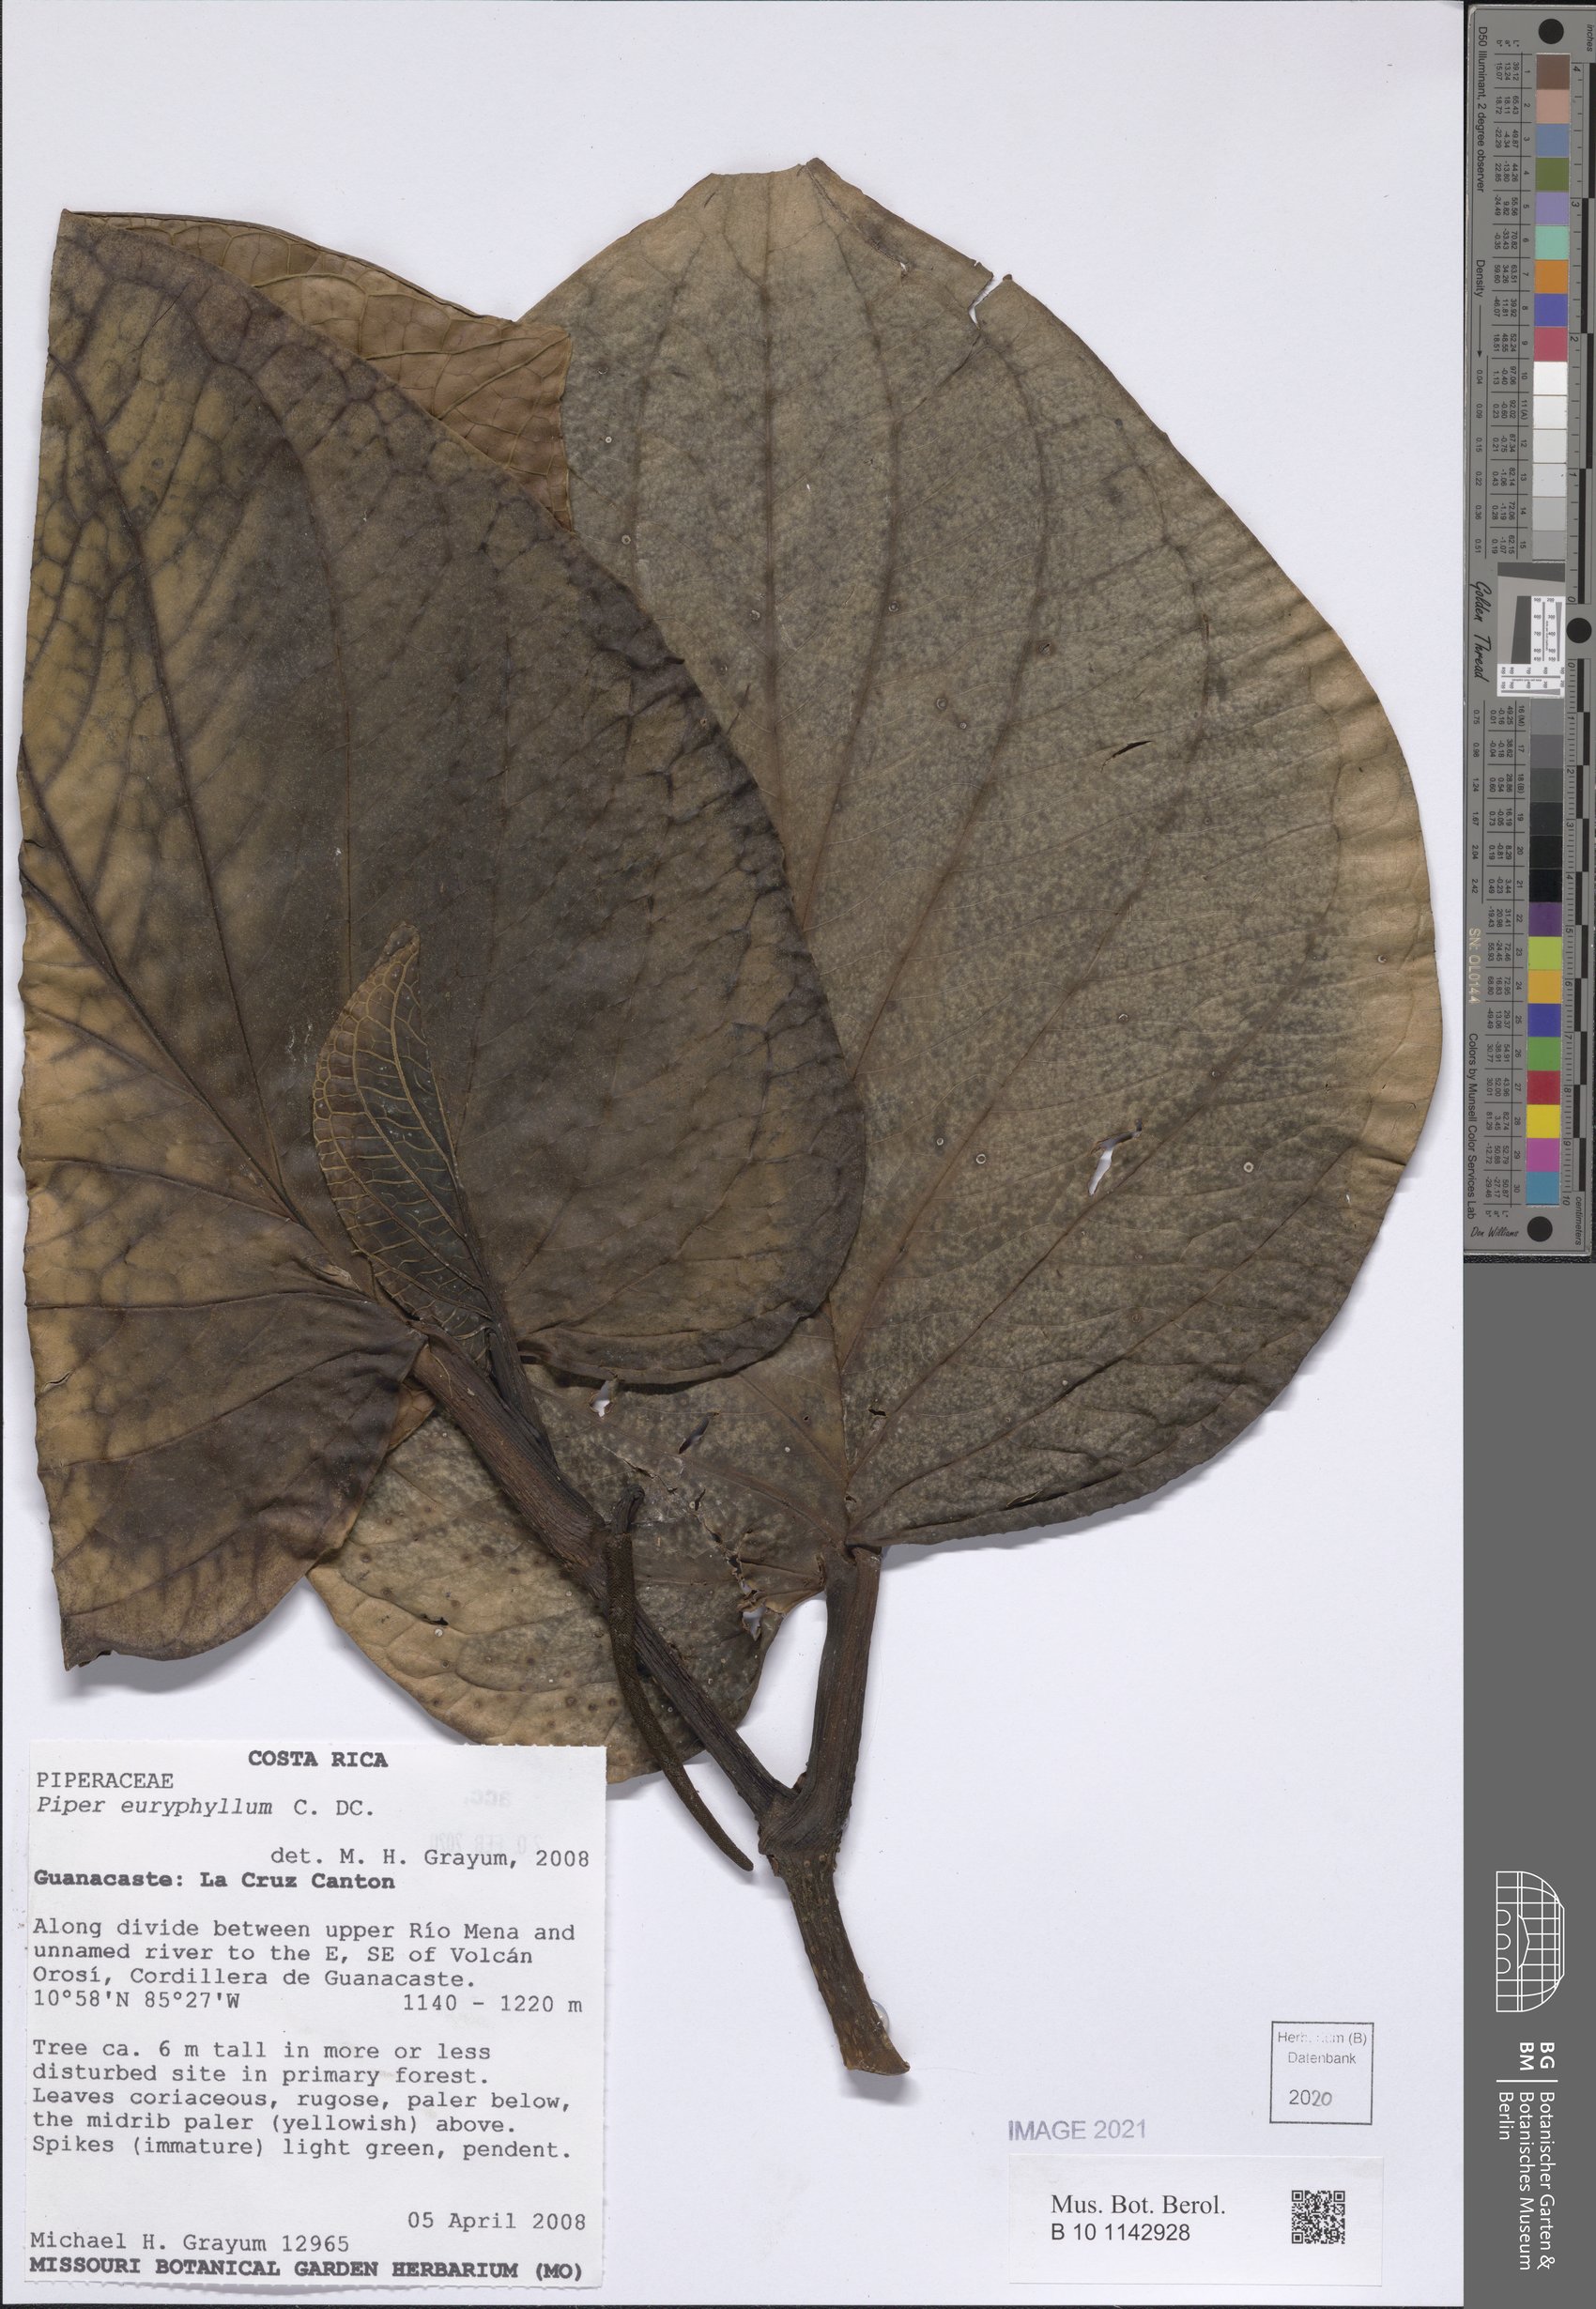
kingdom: Plantae
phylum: Tracheophyta
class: Magnoliopsida
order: Piperales
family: Piperaceae
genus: Piper
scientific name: Piper euryphyllum
